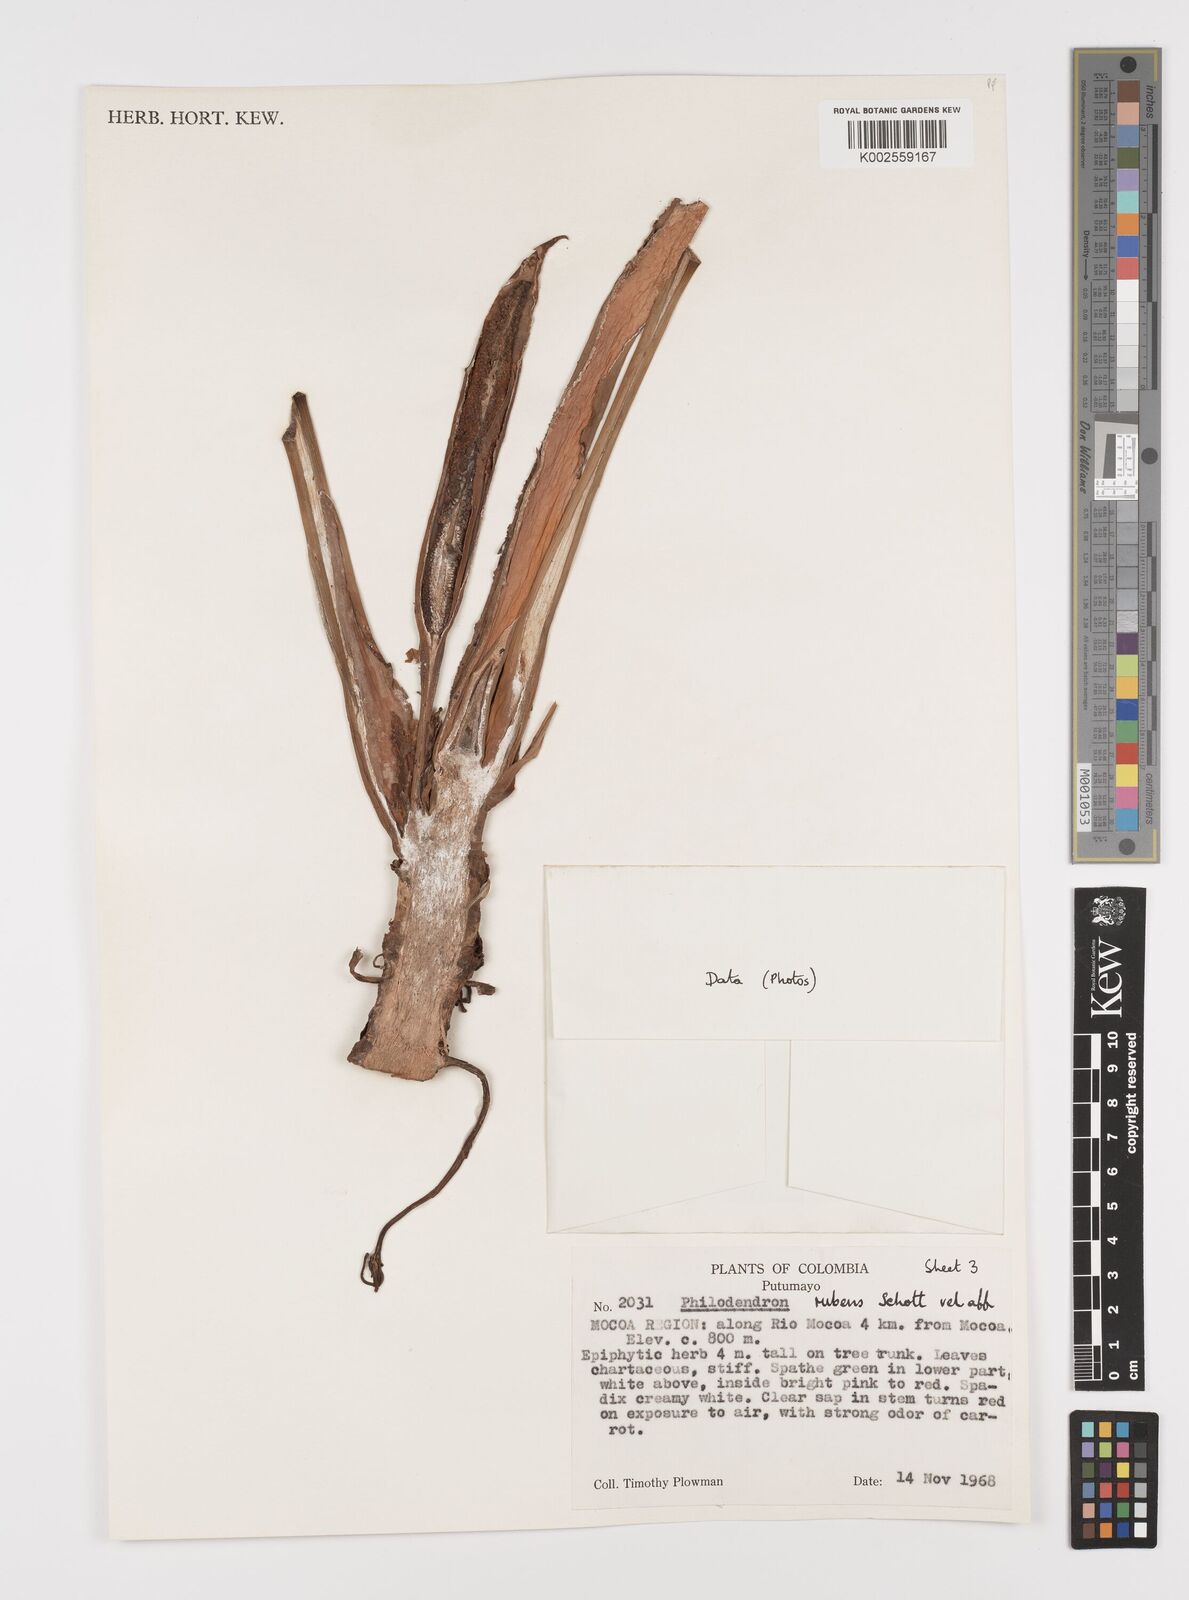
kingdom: Plantae
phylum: Tracheophyta
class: Liliopsida
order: Alismatales
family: Araceae
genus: Philodendron
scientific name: Philodendron ornatum
